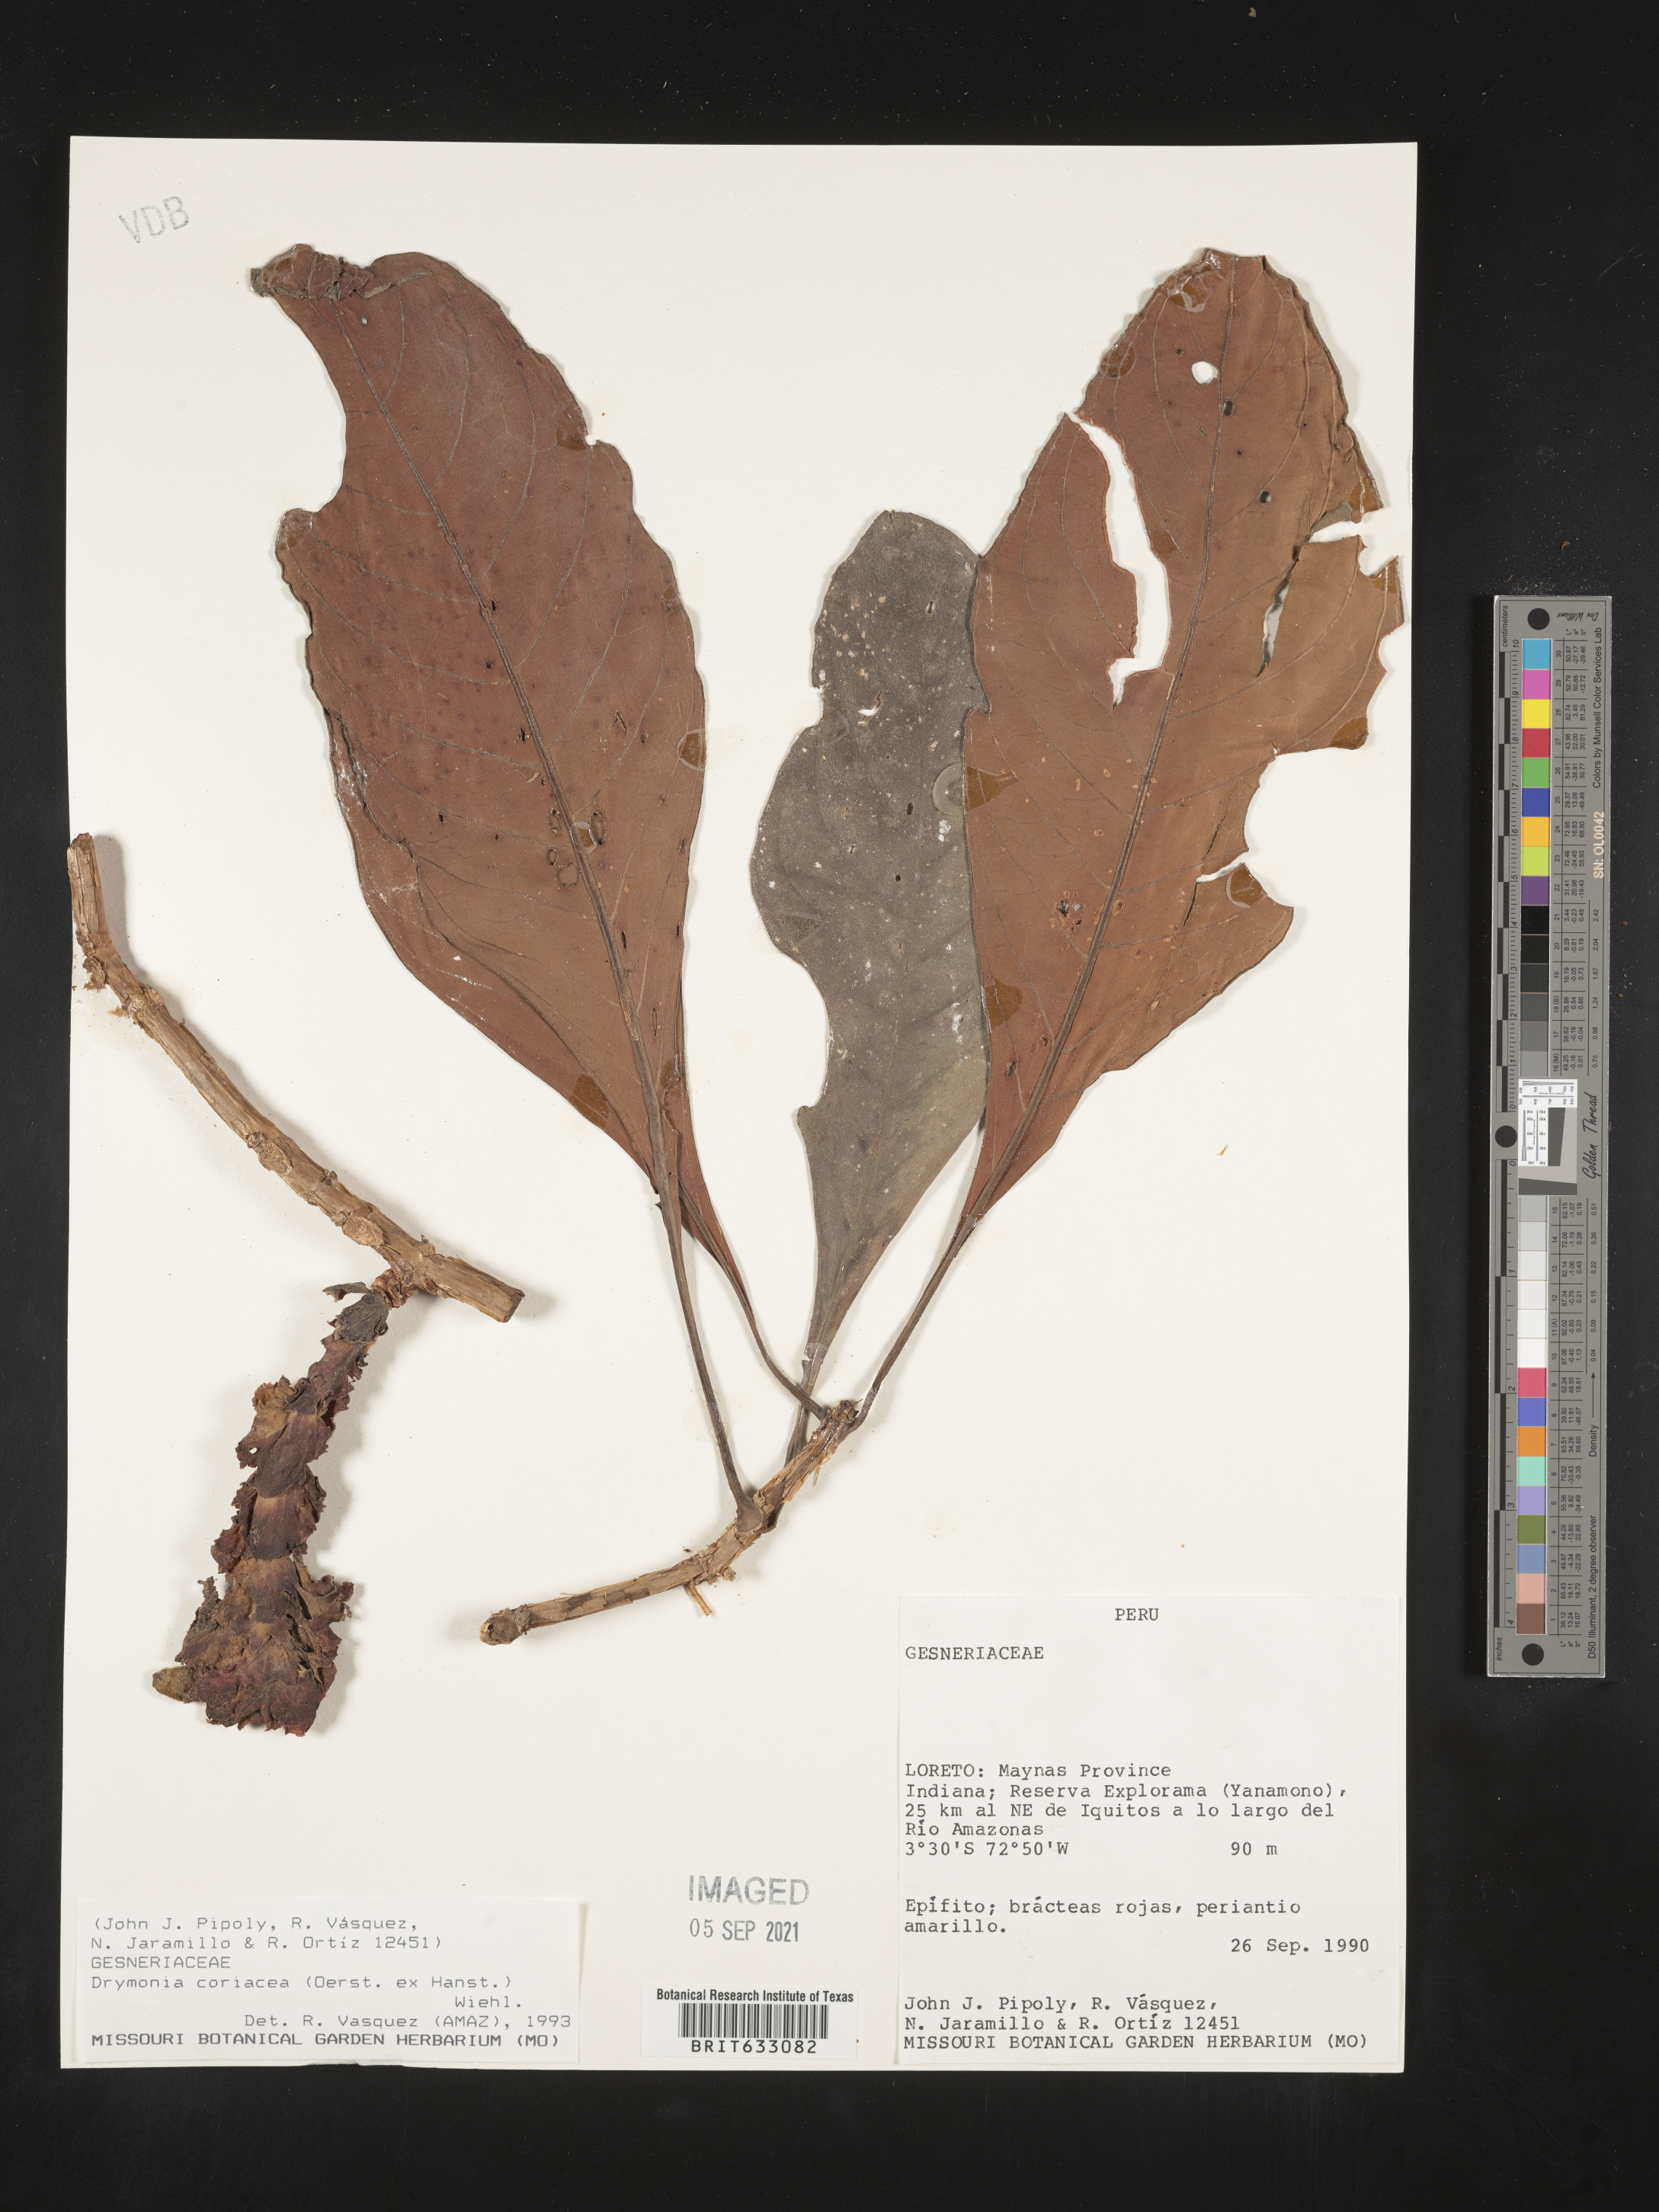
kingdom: Plantae
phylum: Tracheophyta
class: Magnoliopsida
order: Lamiales
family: Gesneriaceae
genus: Drymonia
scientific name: Drymonia
